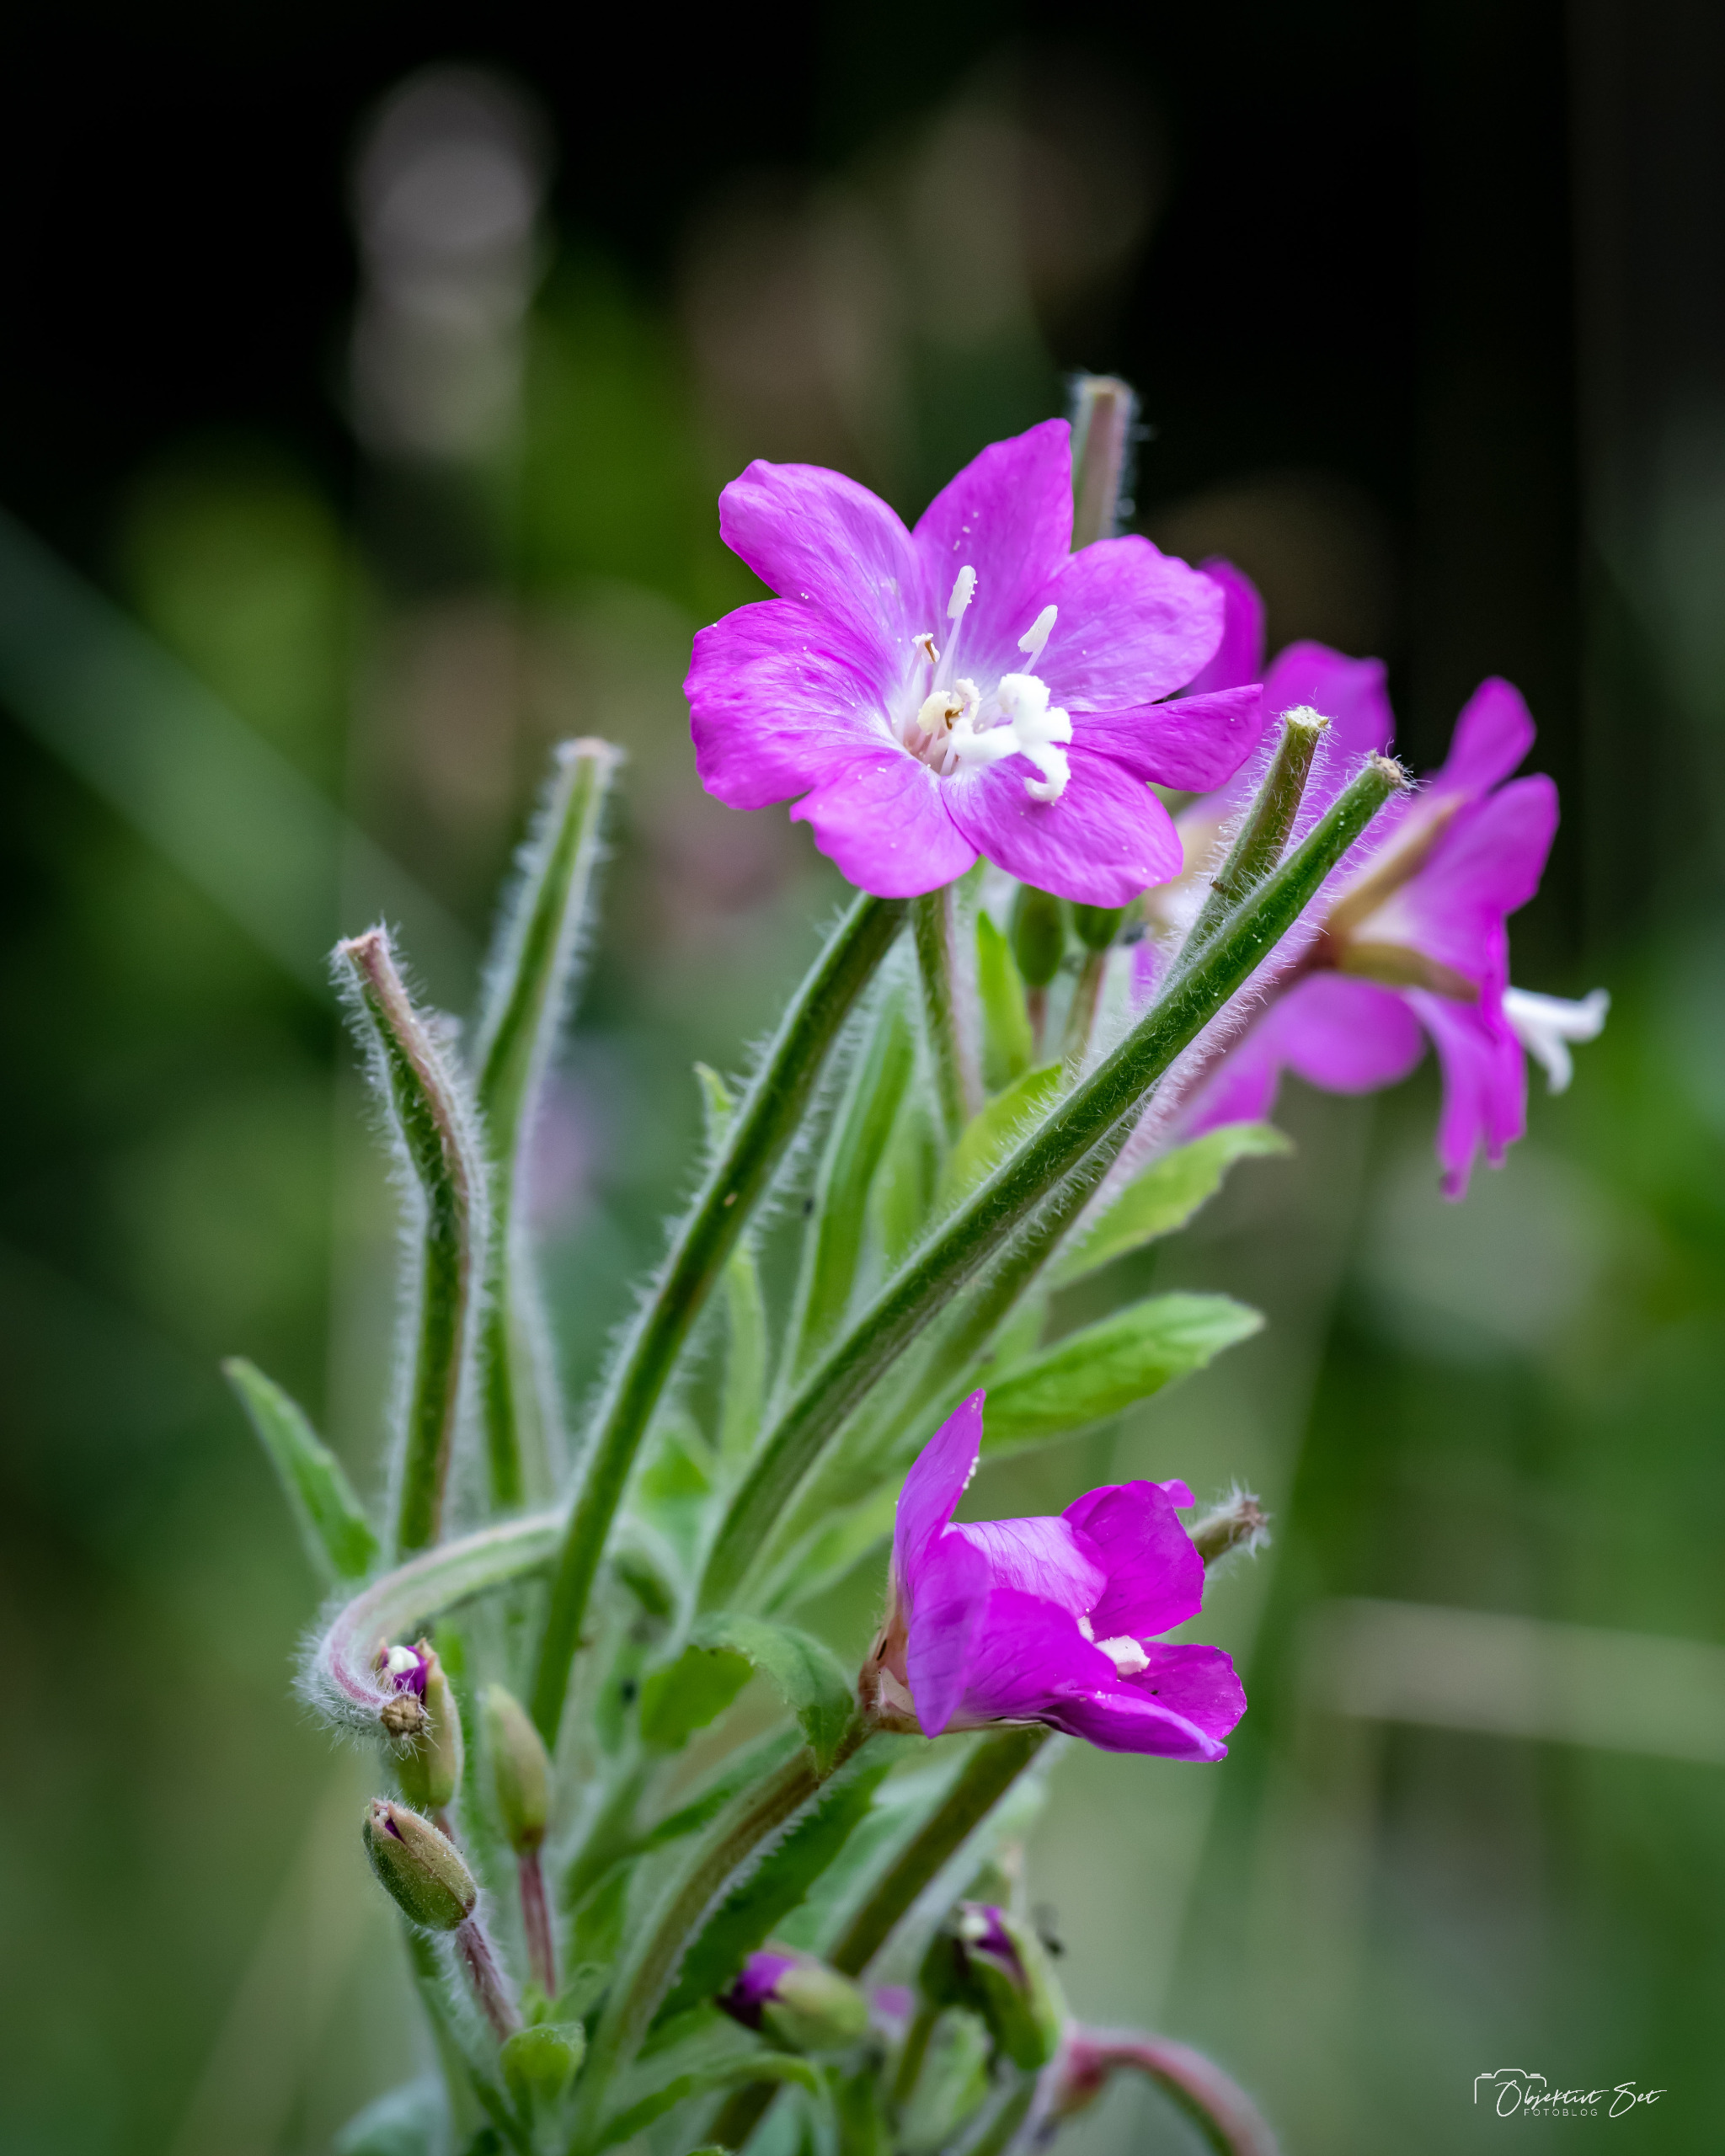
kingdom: Plantae
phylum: Tracheophyta
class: Magnoliopsida
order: Myrtales
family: Onagraceae
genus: Epilobium
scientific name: Epilobium hirsutum
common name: Lådden dueurt
